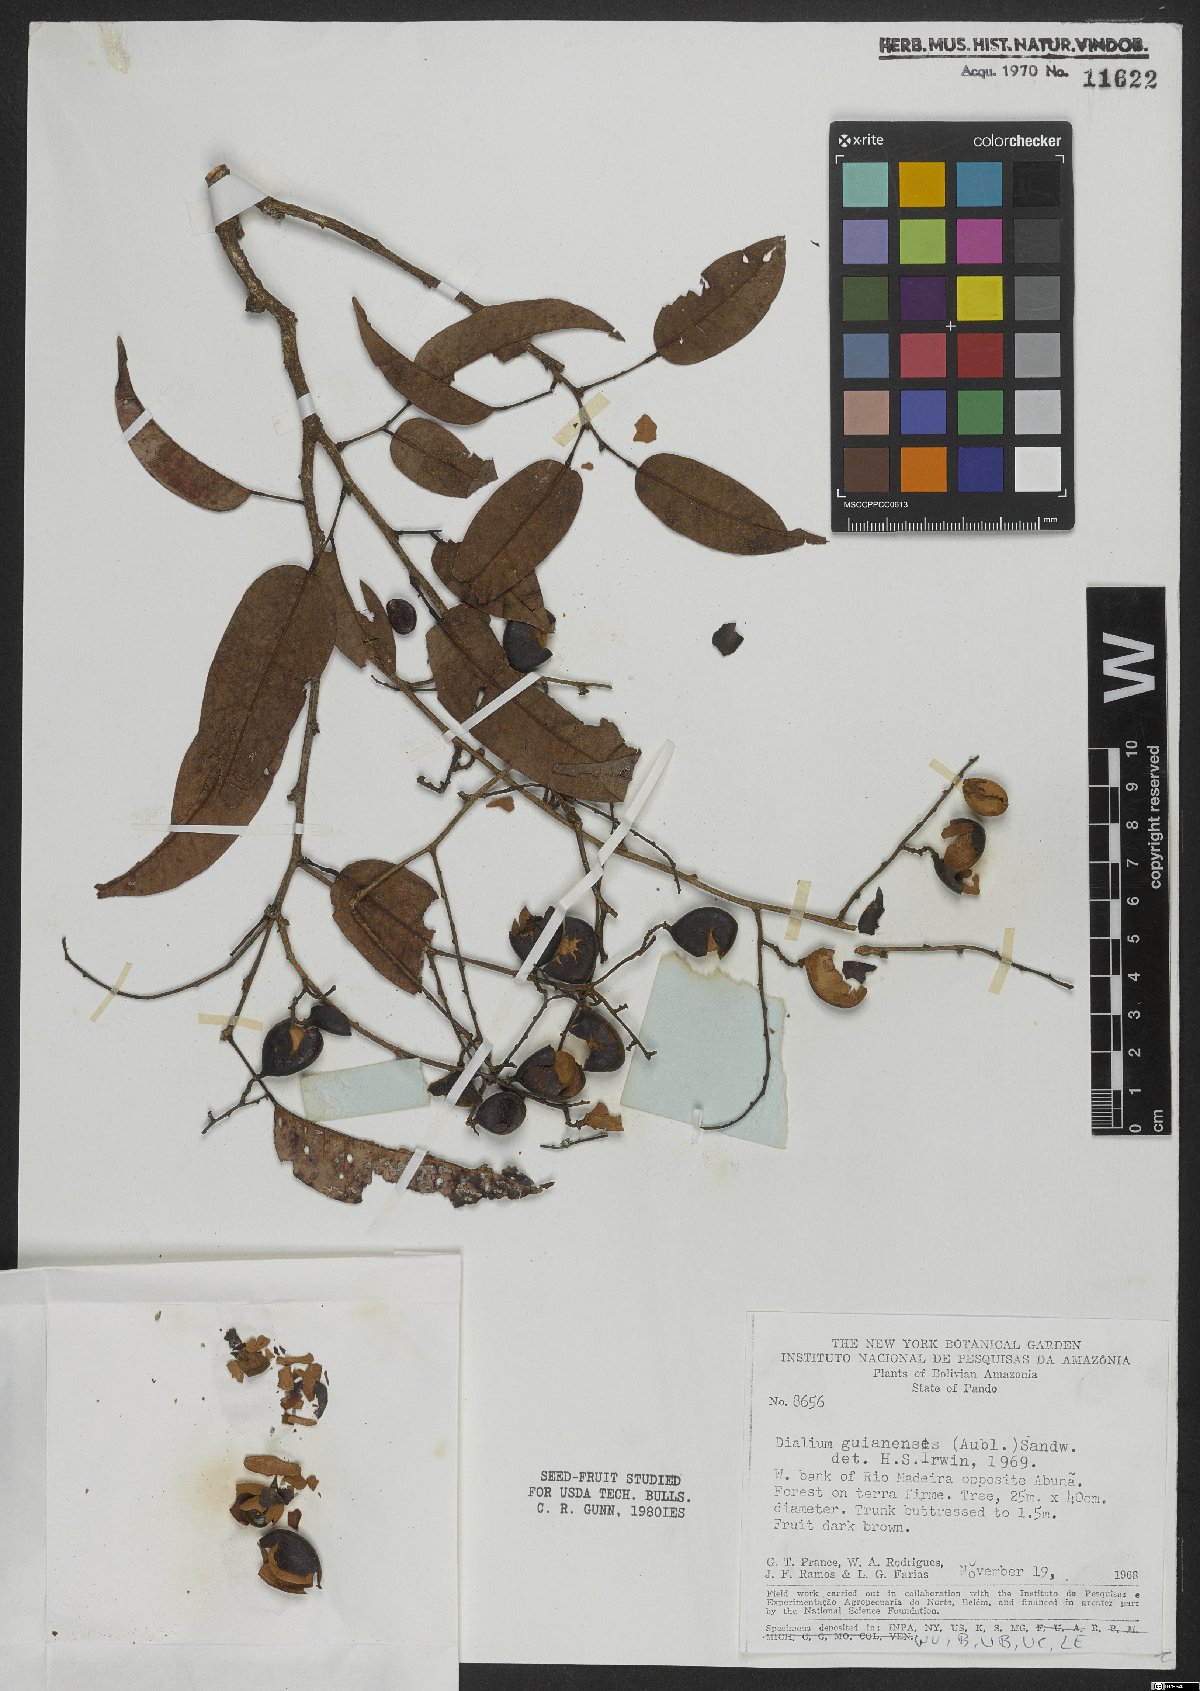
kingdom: Plantae
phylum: Tracheophyta
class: Magnoliopsida
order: Fabales
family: Fabaceae
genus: Dialium
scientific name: Dialium guianense
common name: Ironwood
